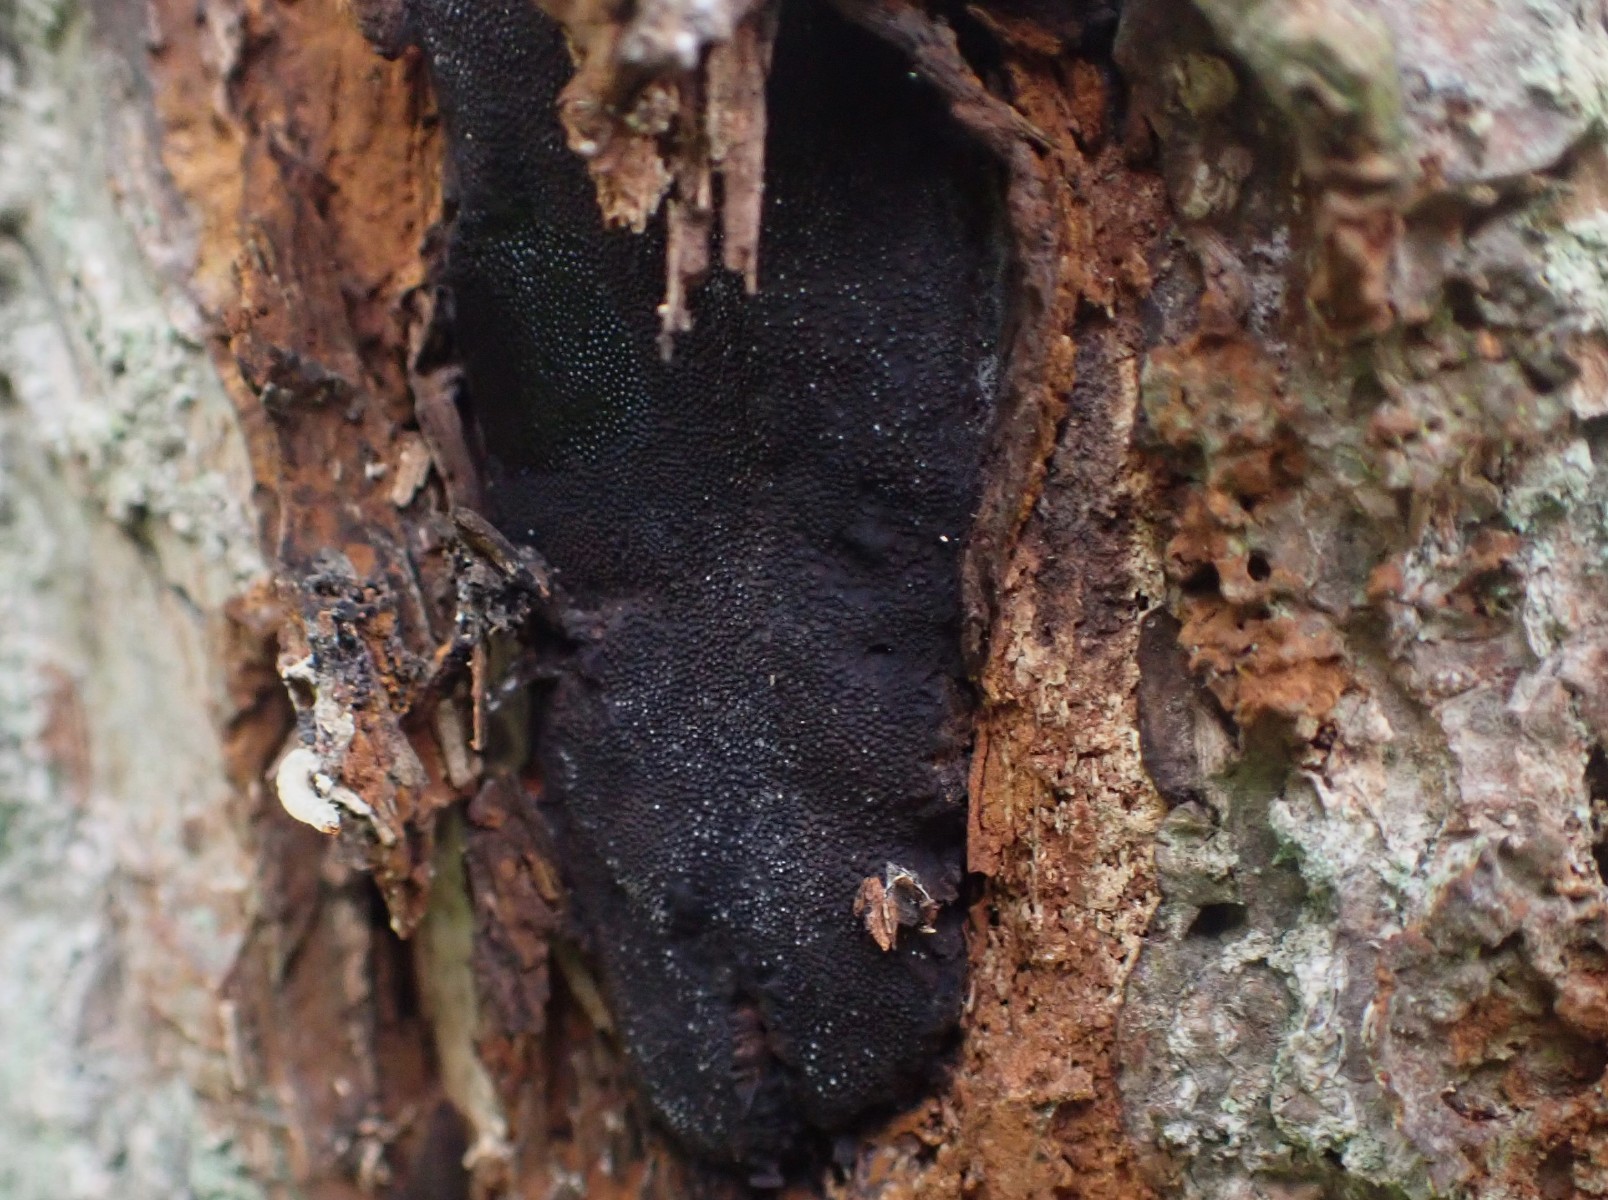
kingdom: Fungi
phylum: Ascomycota
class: Sordariomycetes
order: Boliniales
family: Boliniaceae
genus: Camarops
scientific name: Camarops polysperma
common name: elle-kulsnegl
